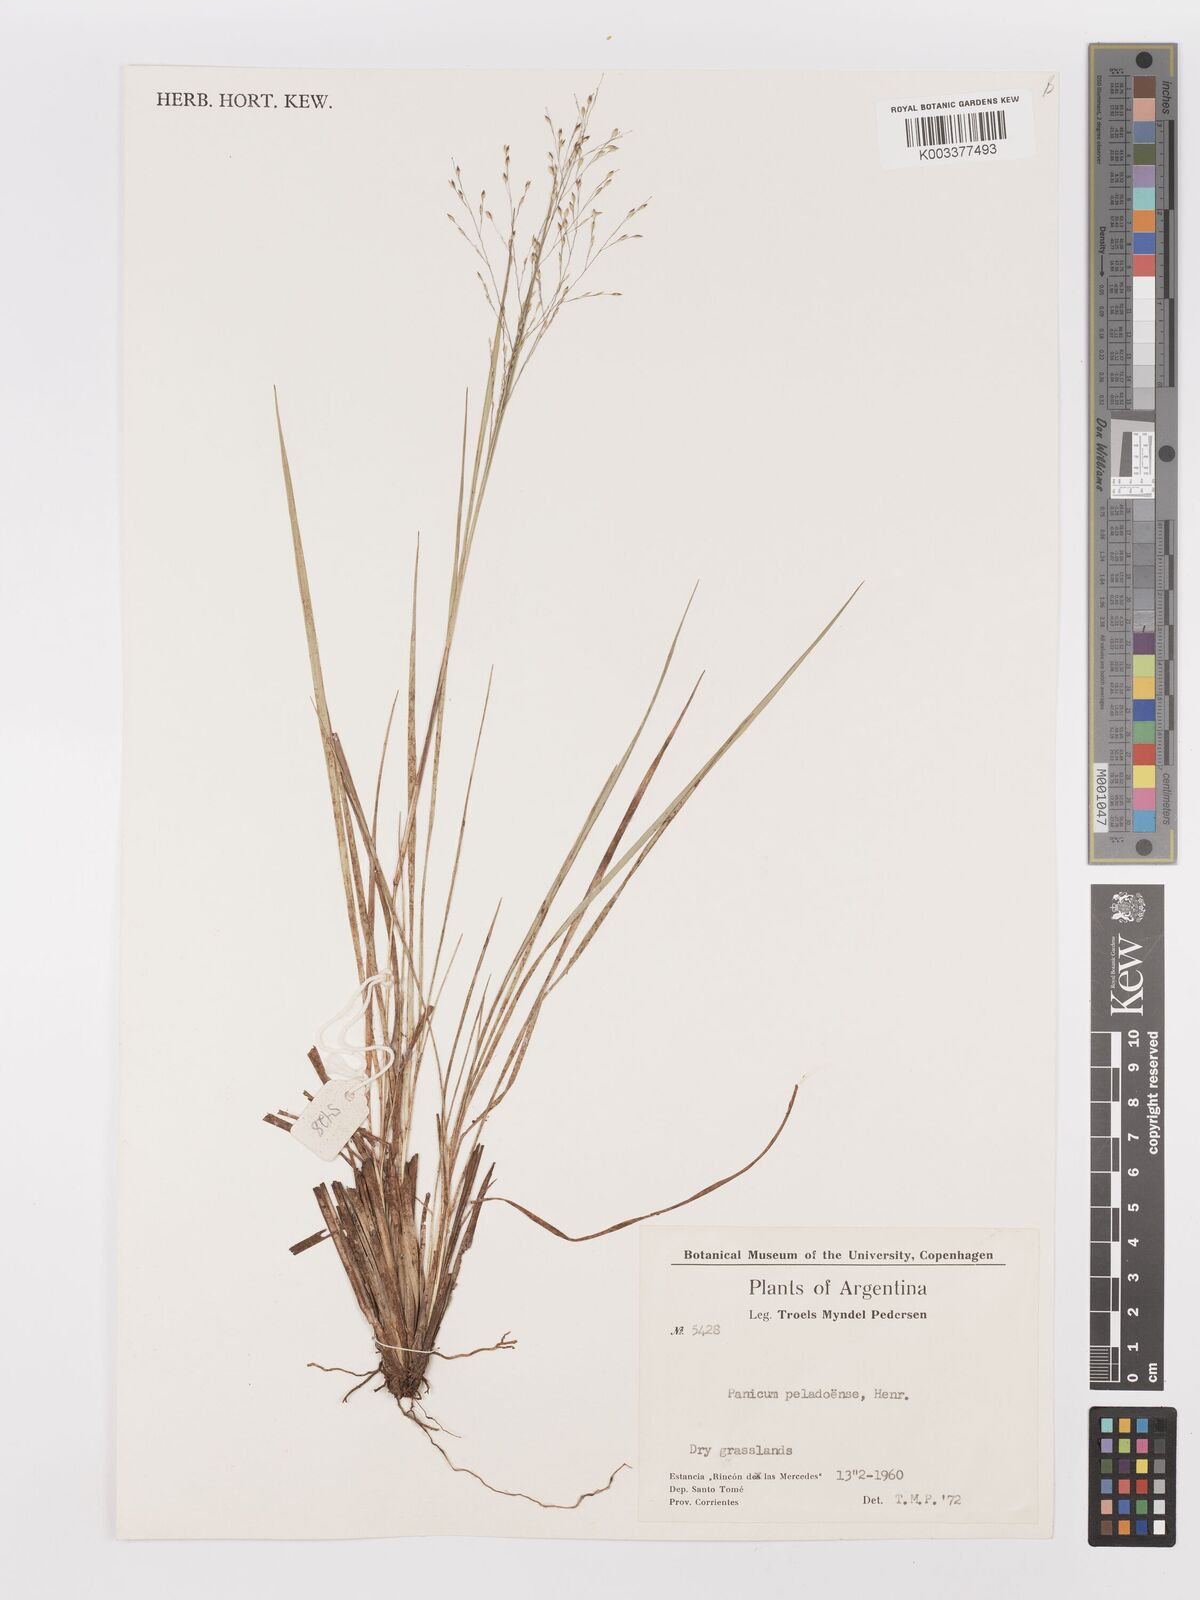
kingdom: Plantae
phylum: Tracheophyta
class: Liliopsida
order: Poales
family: Poaceae
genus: Panicum
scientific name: Panicum peladoense
